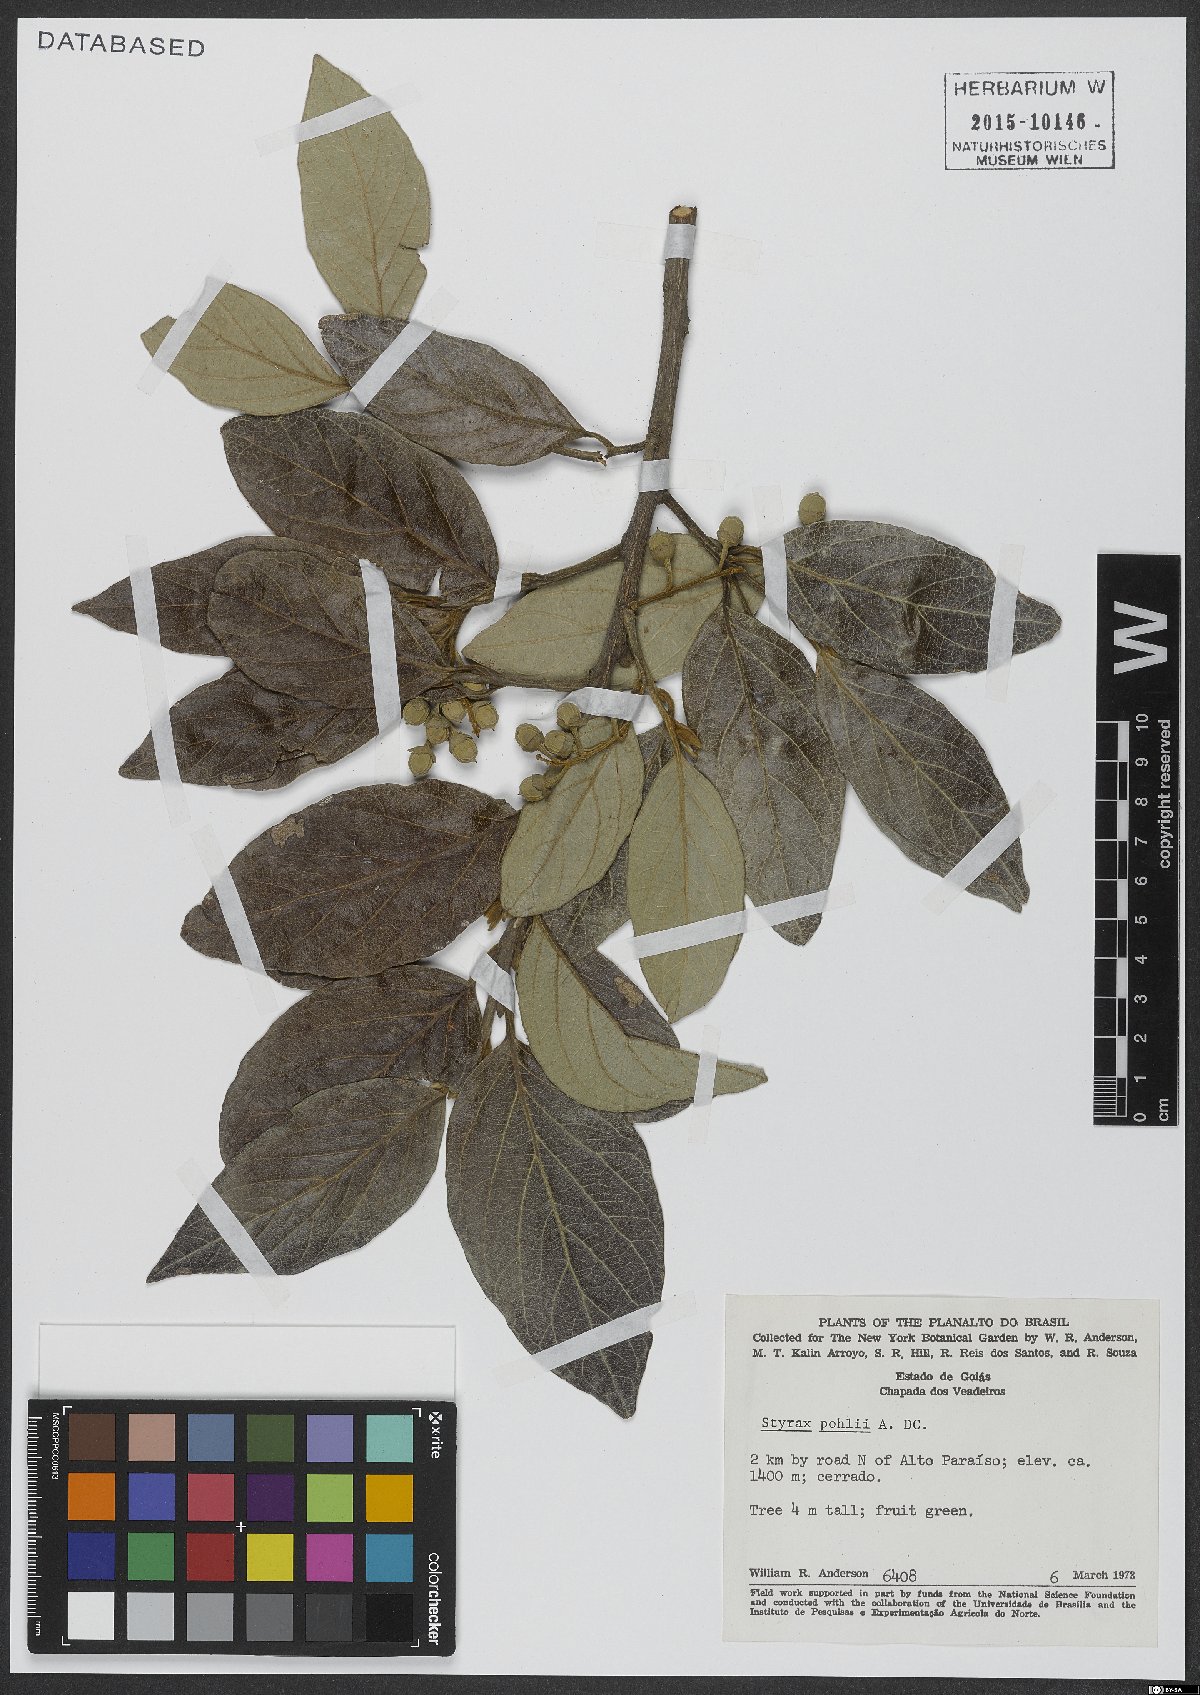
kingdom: Plantae
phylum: Tracheophyta
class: Magnoliopsida
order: Ericales
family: Styracaceae
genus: Styrax
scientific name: Styrax pohlii
